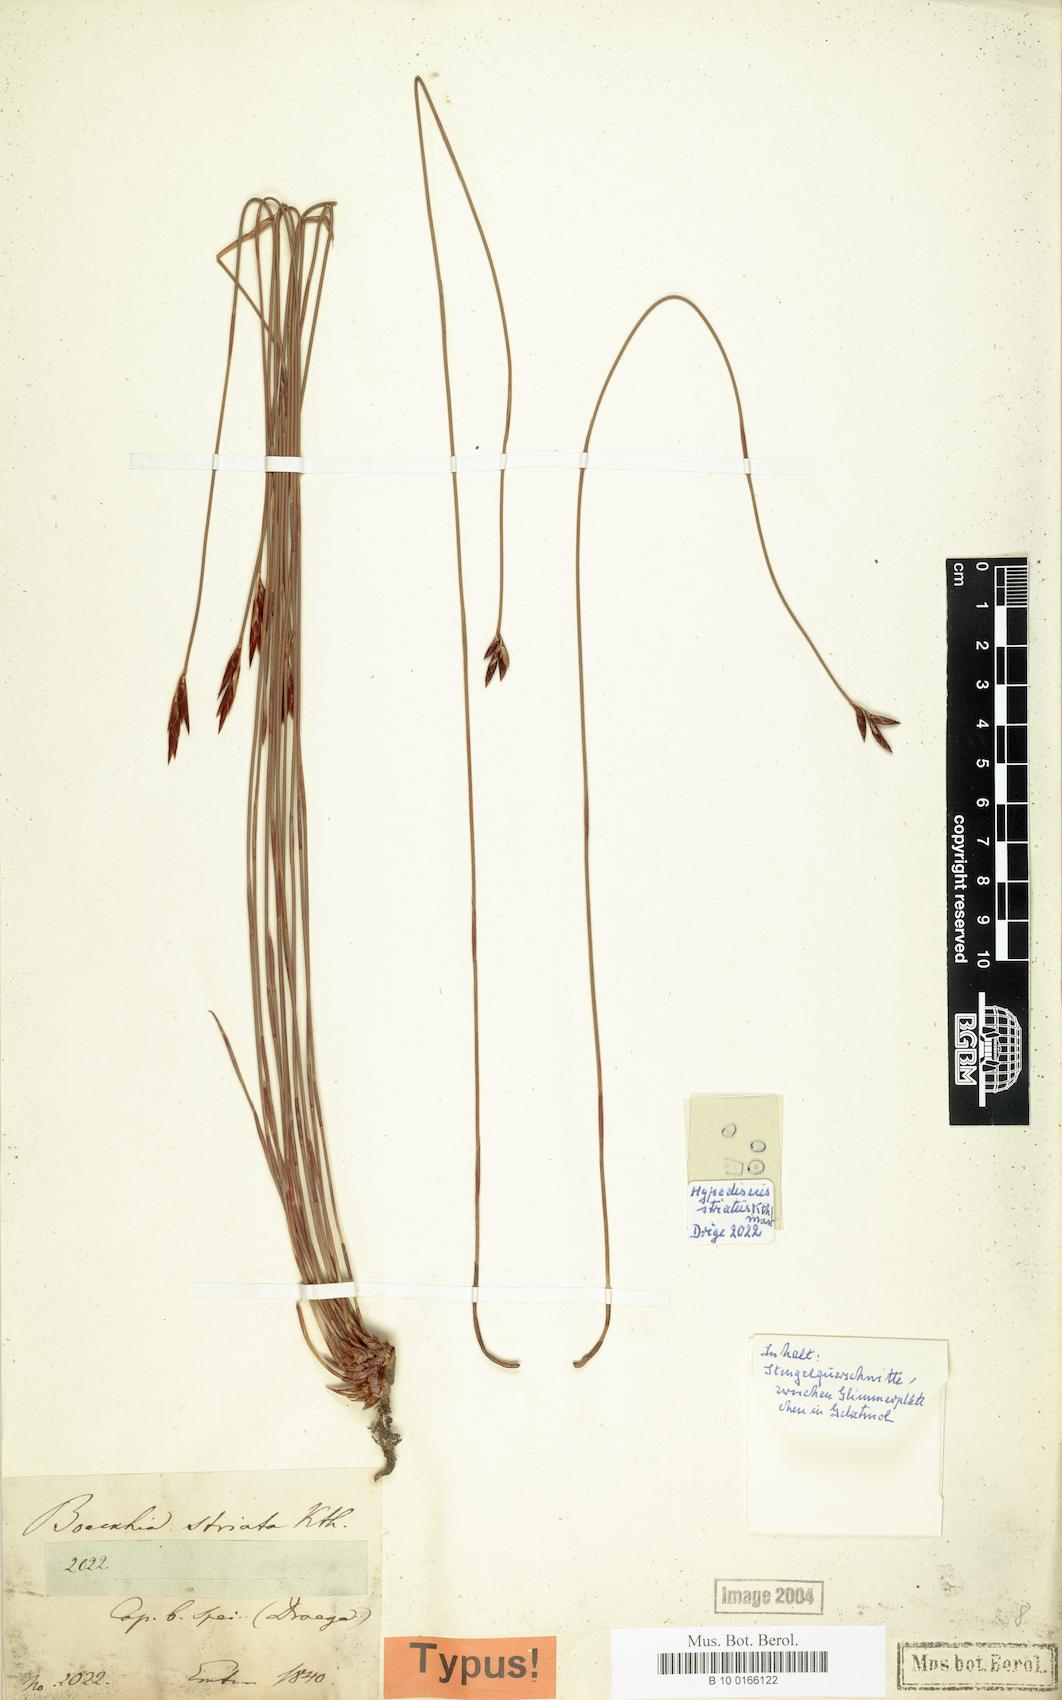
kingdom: Plantae
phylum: Tracheophyta
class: Liliopsida
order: Poales
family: Restionaceae
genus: Hypodiscus
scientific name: Hypodiscus striatus
